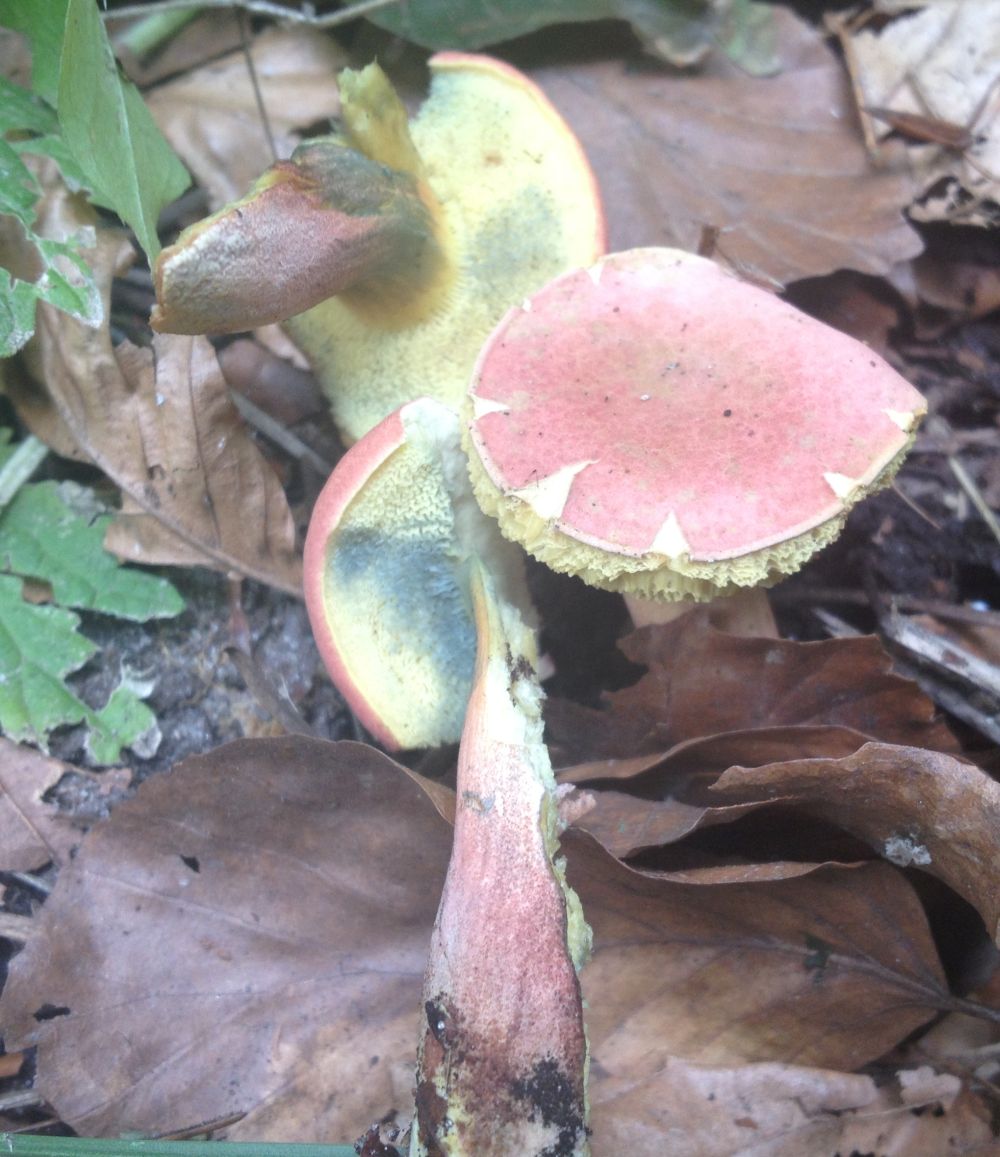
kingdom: Fungi
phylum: Basidiomycota
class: Agaricomycetes
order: Boletales
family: Boletaceae
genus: Hortiboletus
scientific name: Hortiboletus rubellus
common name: blodrød rørhat
